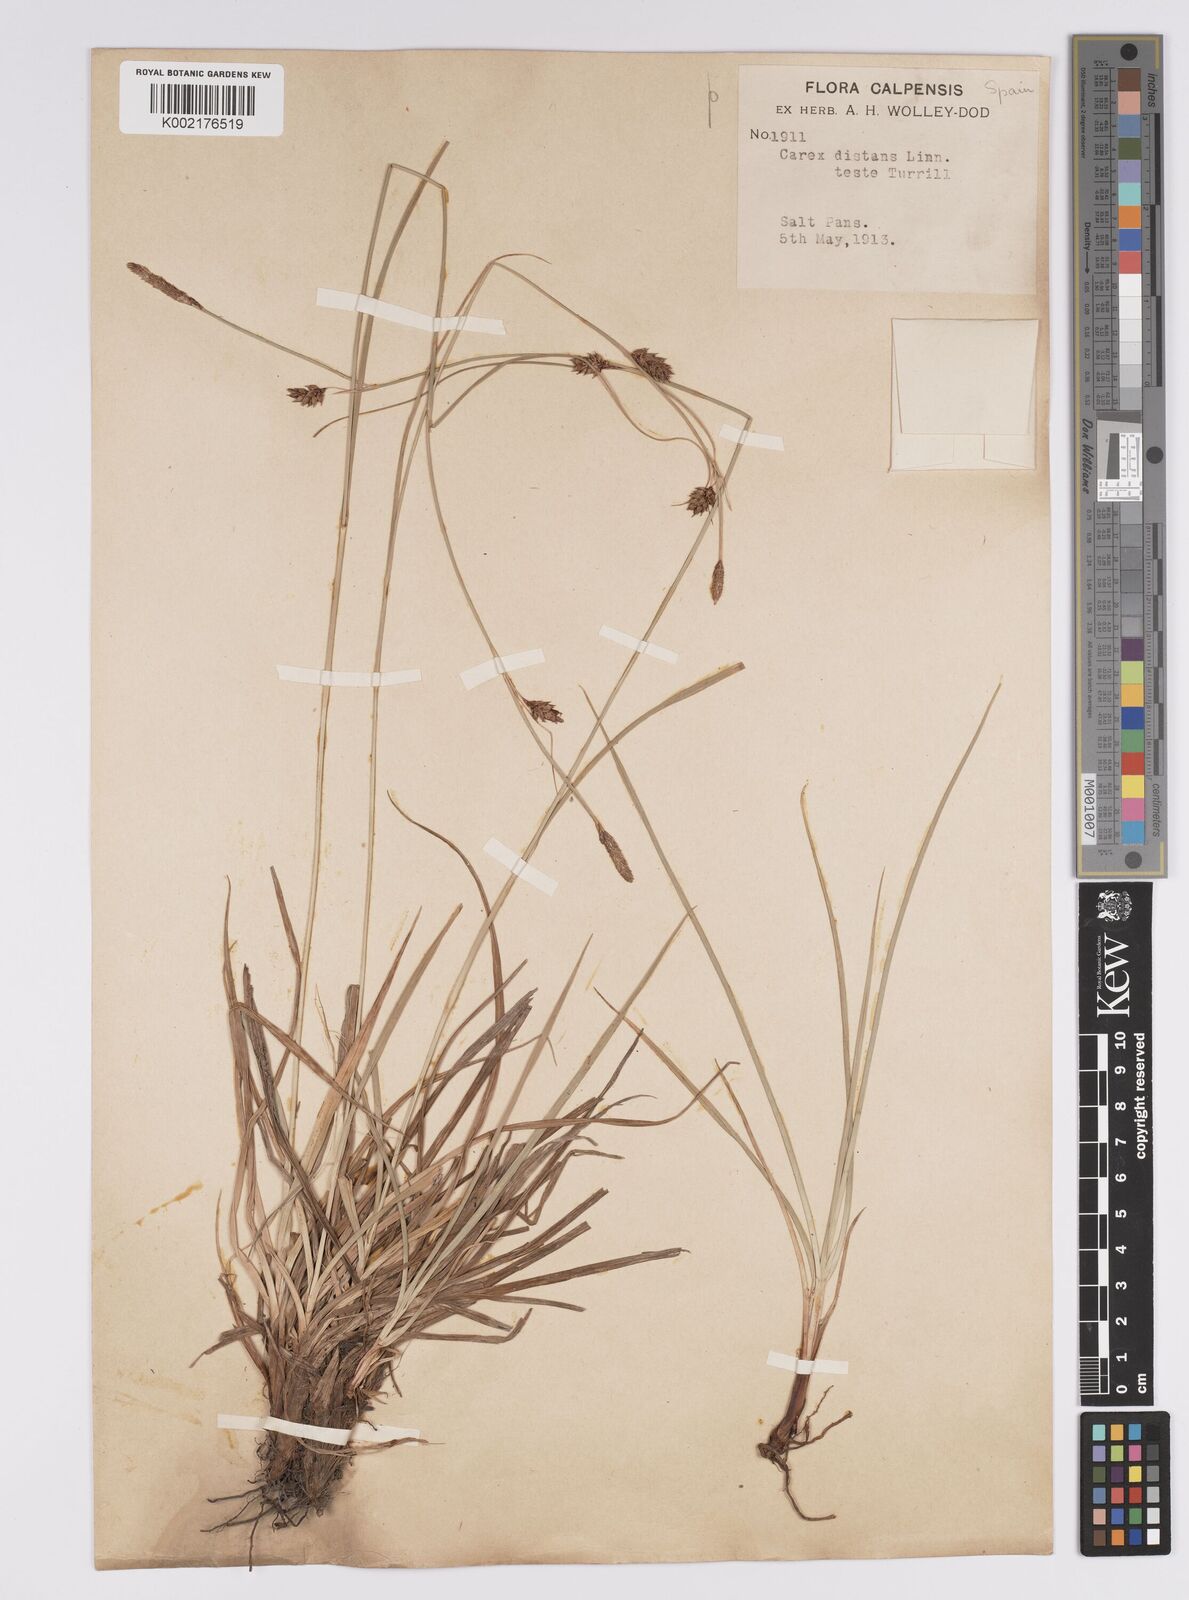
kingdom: Plantae
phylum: Tracheophyta
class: Liliopsida
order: Poales
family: Cyperaceae
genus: Carex
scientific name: Carex distans
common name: Distant sedge
